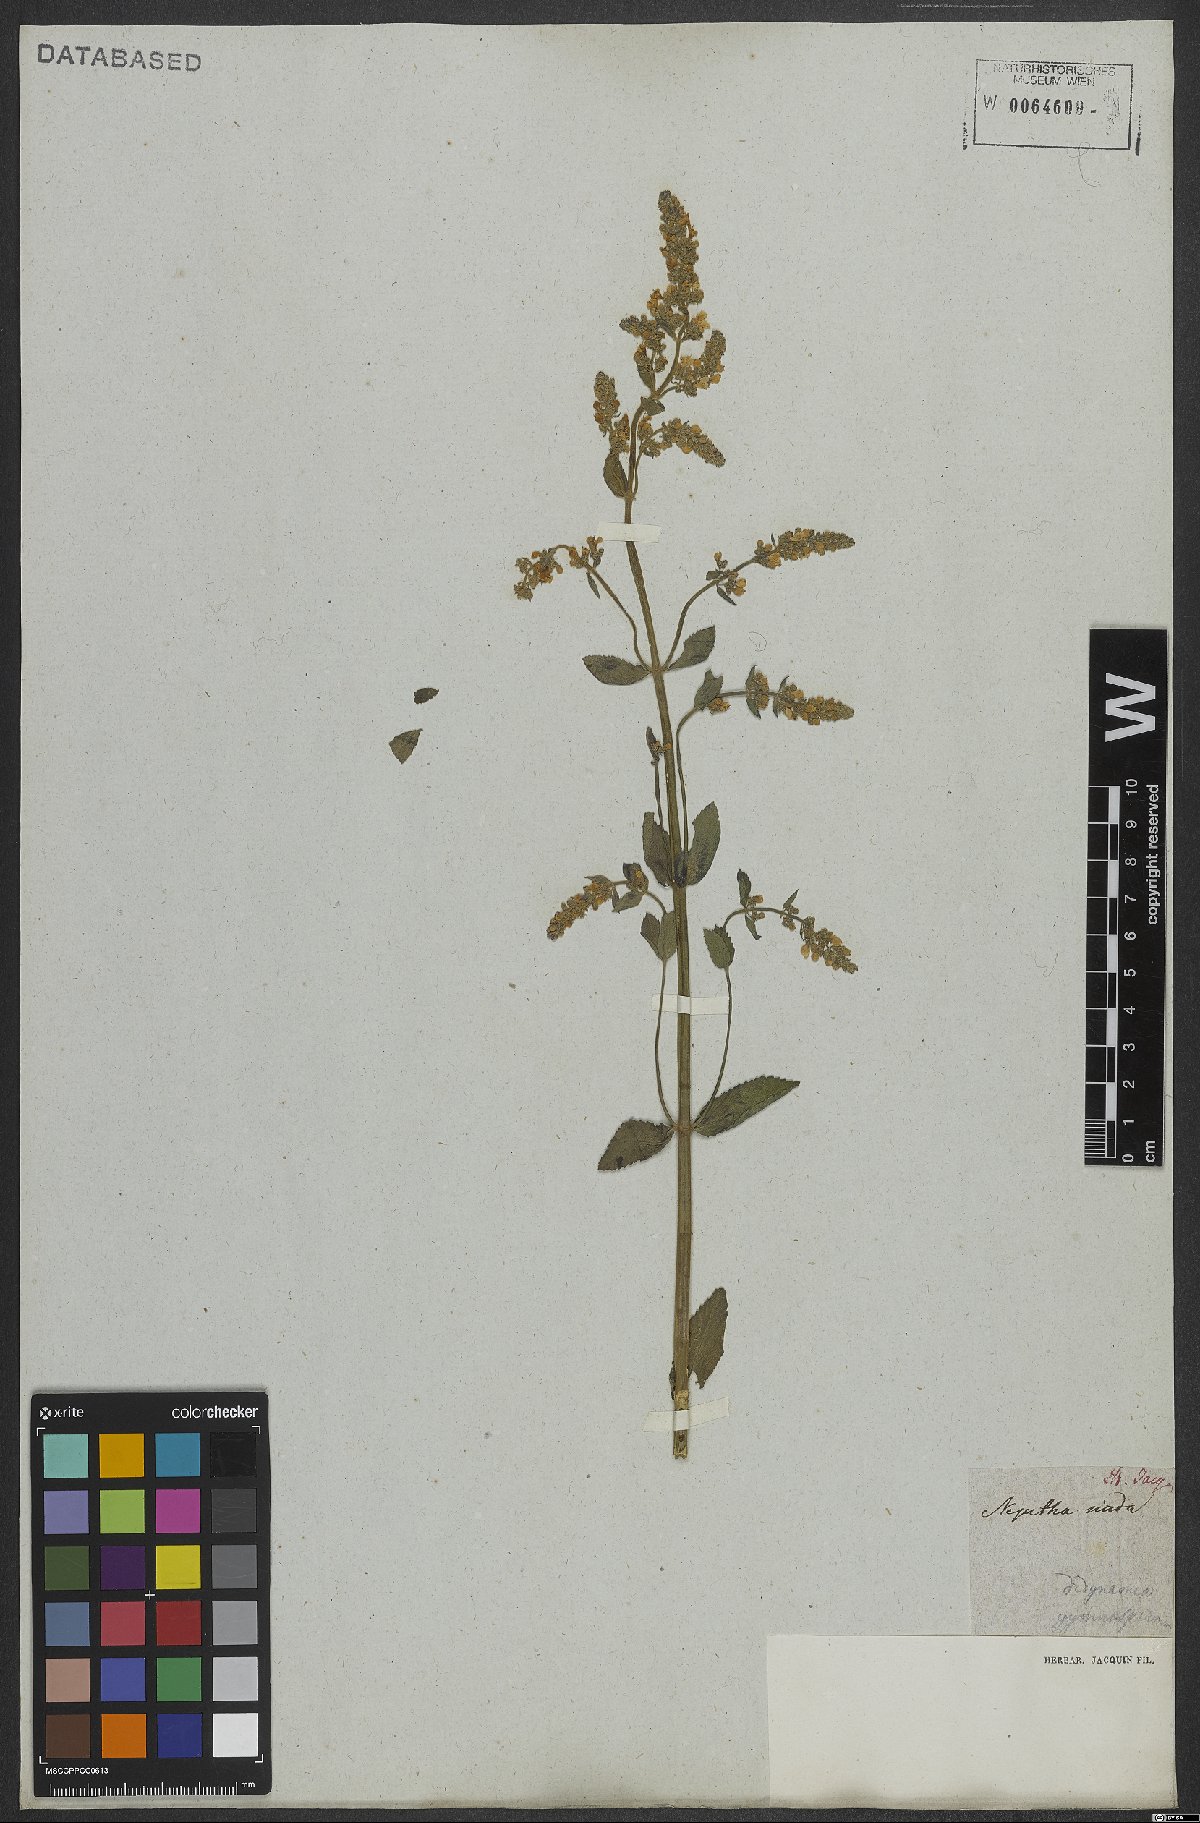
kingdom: Plantae
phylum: Tracheophyta
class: Magnoliopsida
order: Lamiales
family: Lamiaceae
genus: Nepeta
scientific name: Nepeta nuda
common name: Hairless catmint
